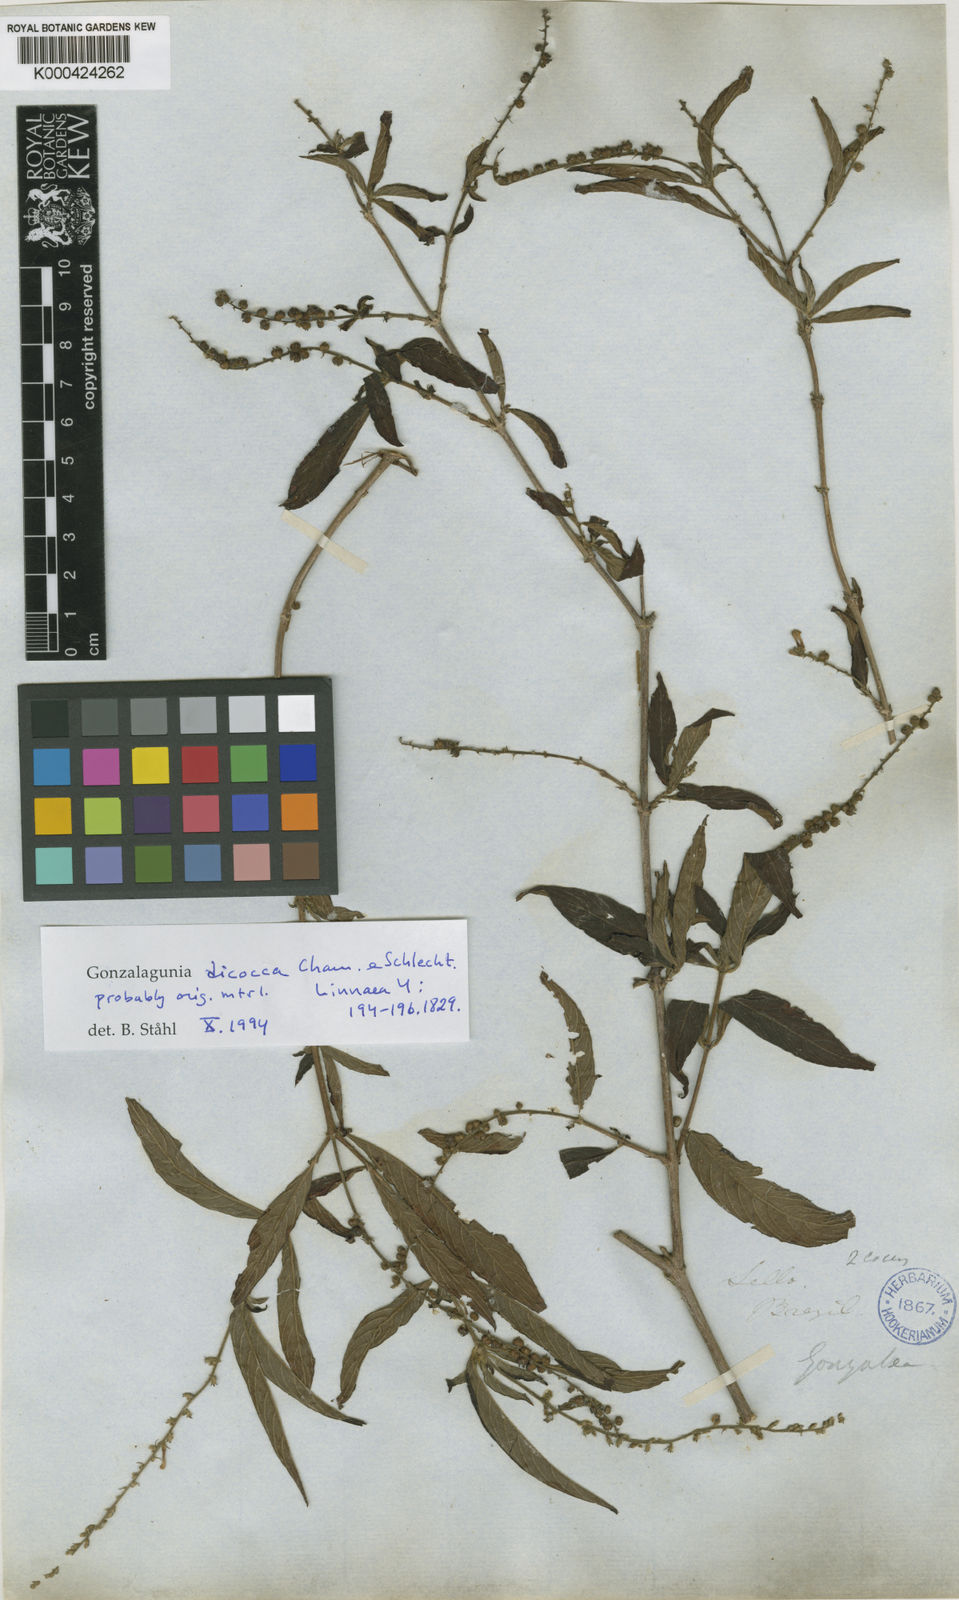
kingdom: Plantae
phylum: Tracheophyta
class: Magnoliopsida
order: Gentianales
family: Rubiaceae
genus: Gonzalagunia
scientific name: Gonzalagunia dicocca
